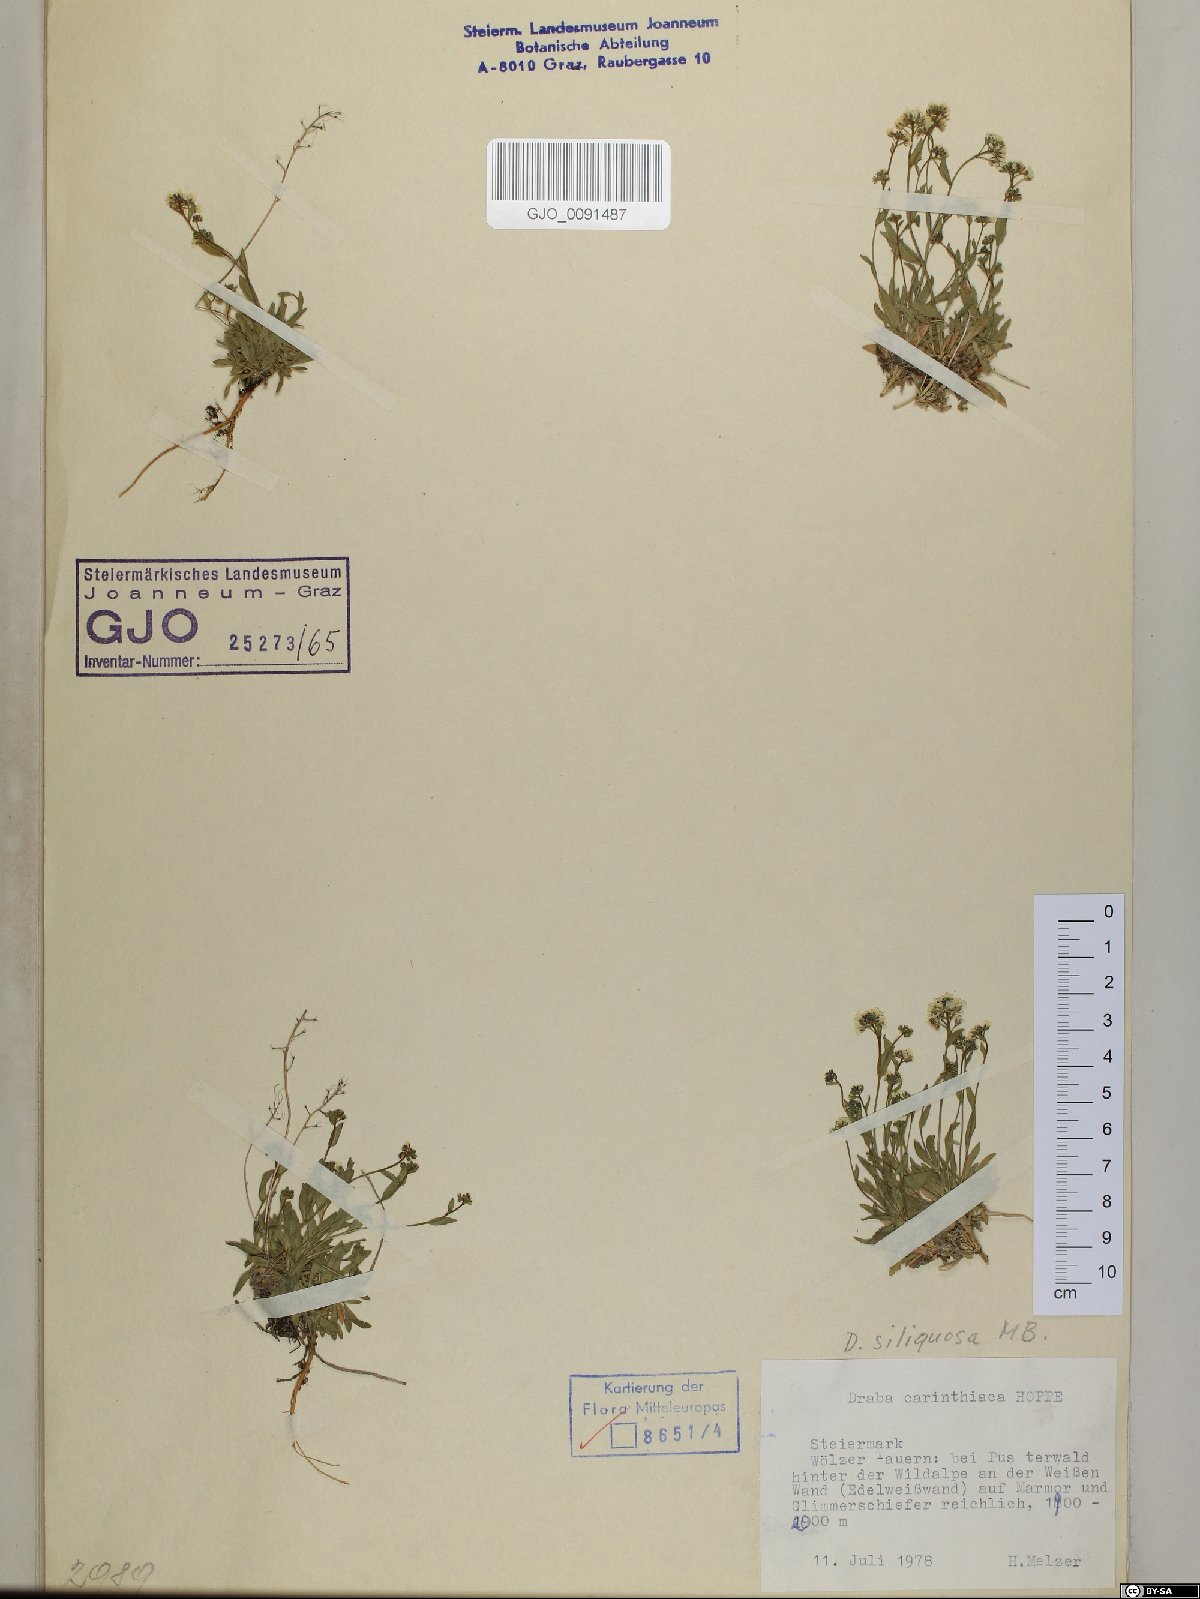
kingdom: Plantae
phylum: Tracheophyta
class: Magnoliopsida
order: Brassicales
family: Brassicaceae
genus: Draba
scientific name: Draba siliquosa
